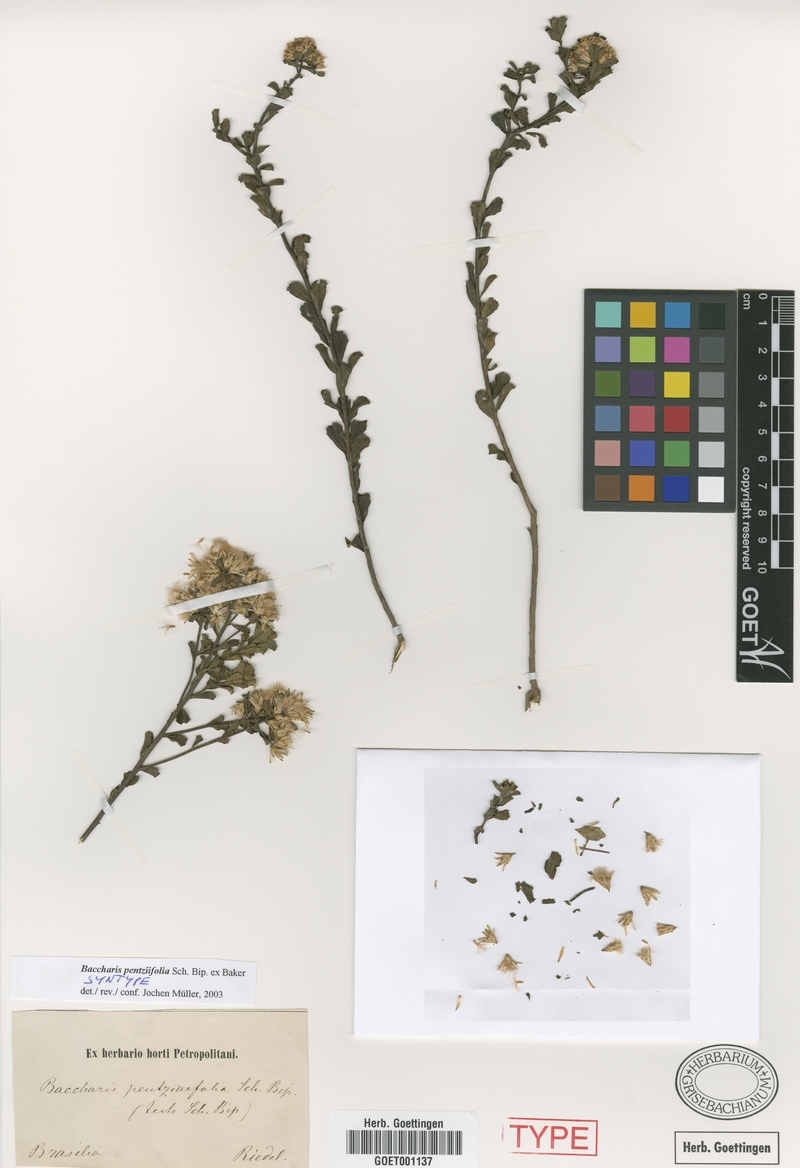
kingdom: Plantae
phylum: Tracheophyta
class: Magnoliopsida
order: Asterales
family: Asteraceae
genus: Baccharis
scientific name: Baccharis pentziifolia
